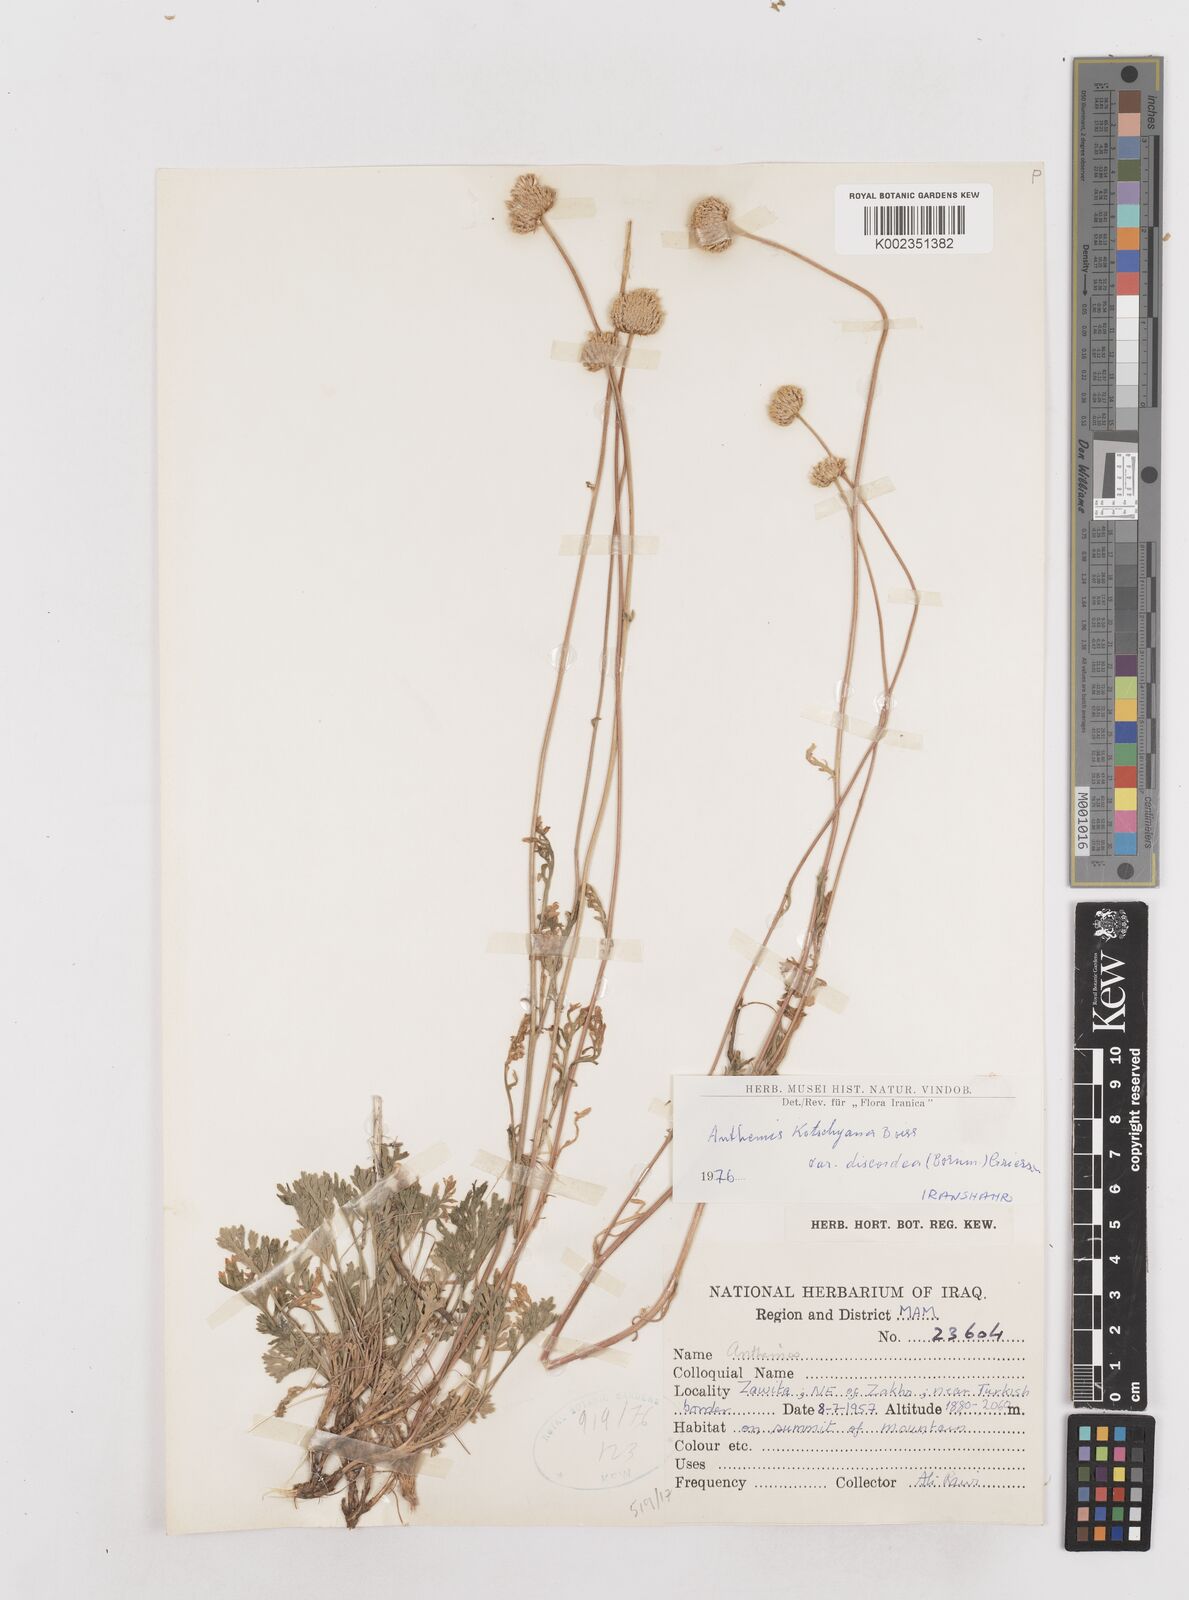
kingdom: Plantae
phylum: Tracheophyta
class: Magnoliopsida
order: Asterales
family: Asteraceae
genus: Anthemis
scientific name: Anthemis kotschyana
